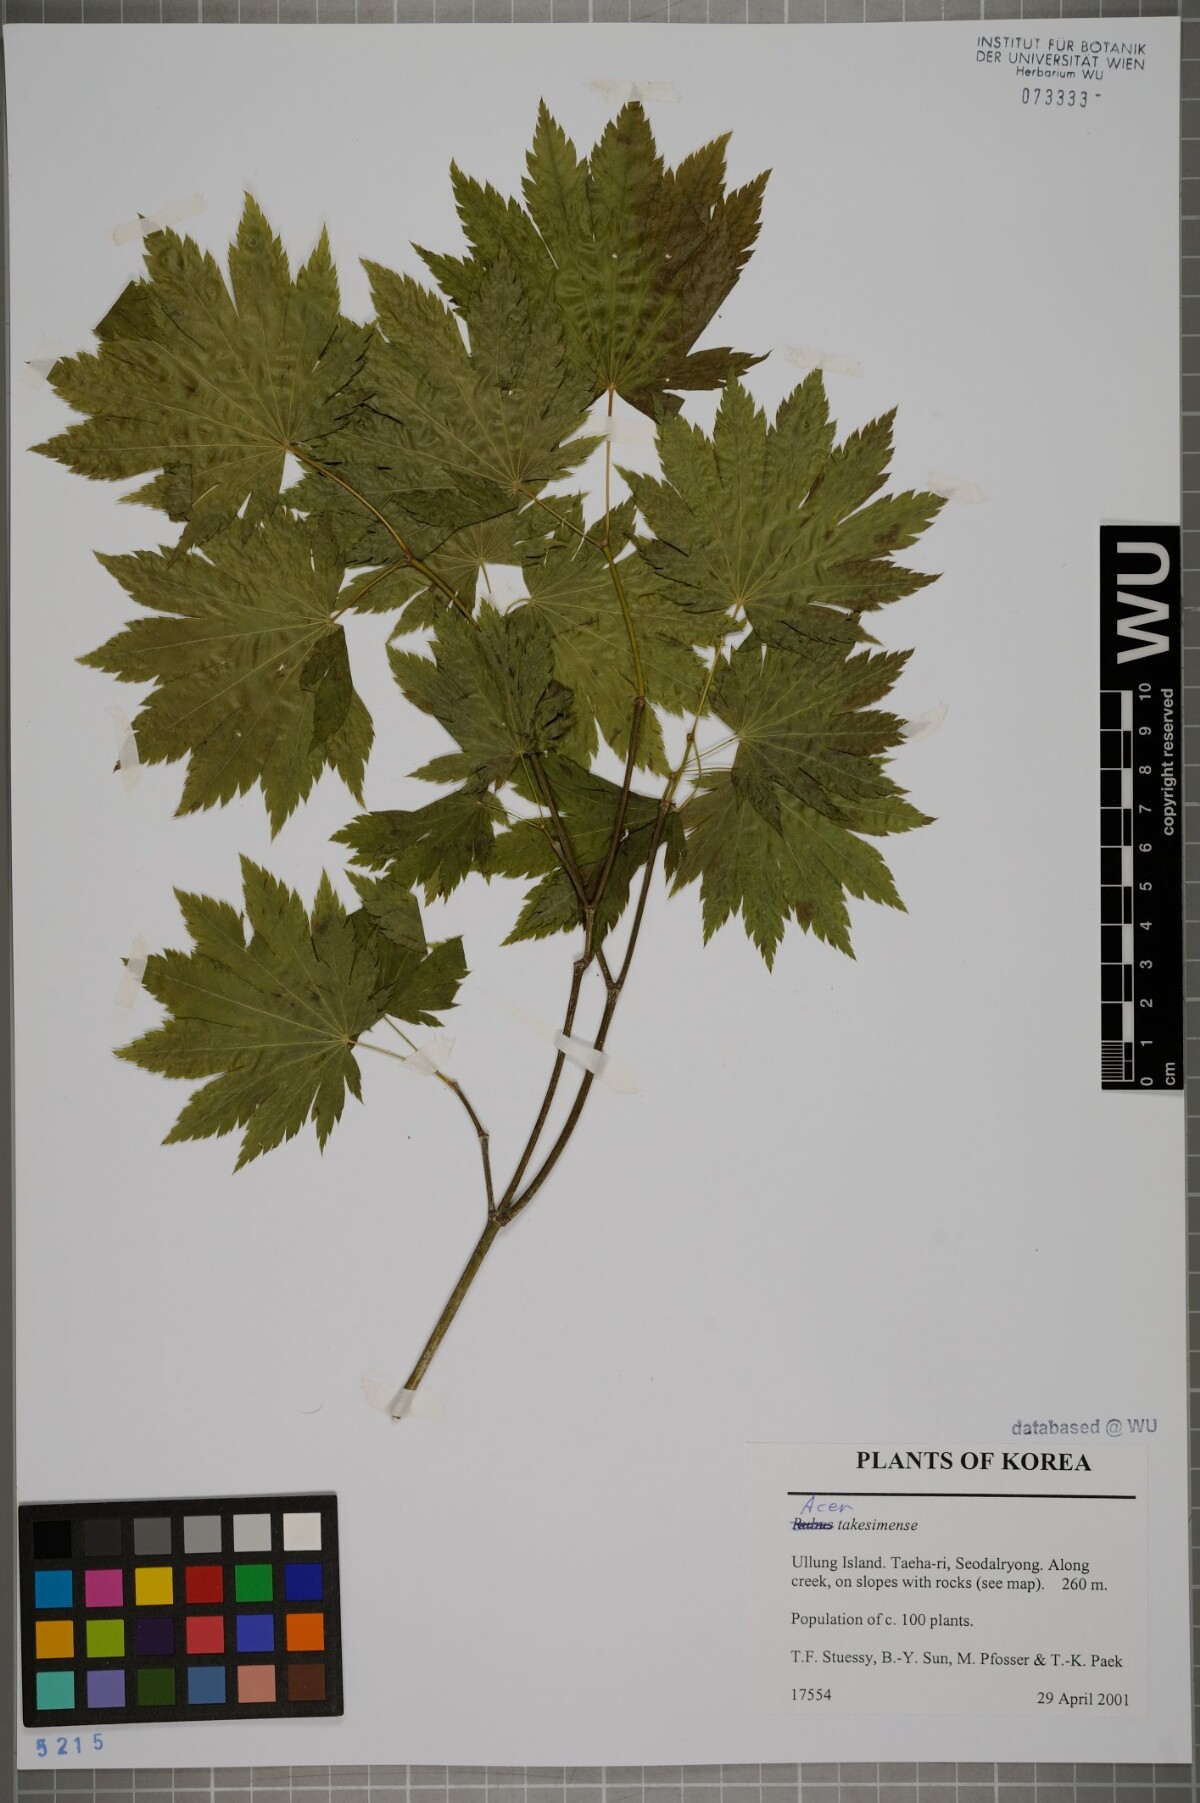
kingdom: Plantae
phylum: Tracheophyta
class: Magnoliopsida
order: Sapindales
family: Sapindaceae
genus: Acer
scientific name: Acer pseudosieboldianum
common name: Korean maple
